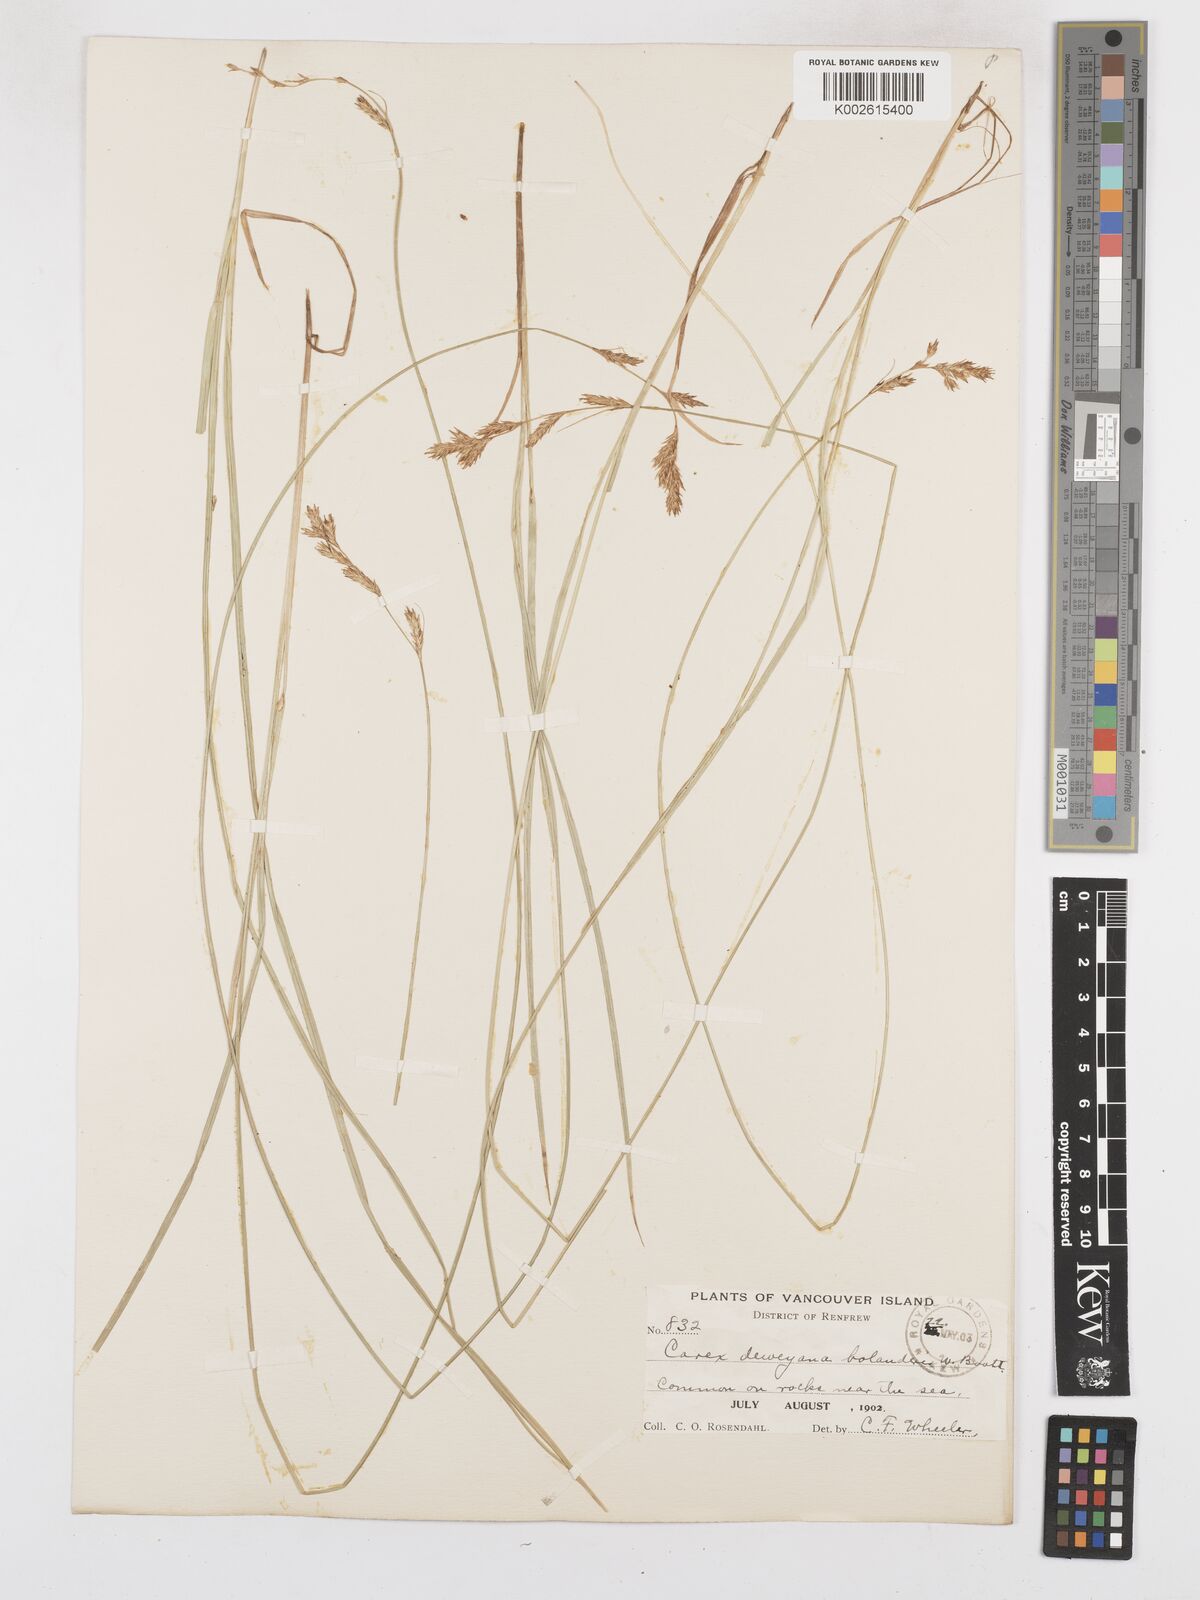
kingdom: Plantae
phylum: Tracheophyta
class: Liliopsida
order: Poales
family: Cyperaceae
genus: Carex
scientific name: Carex bolanderi
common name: Bolander's sedge
